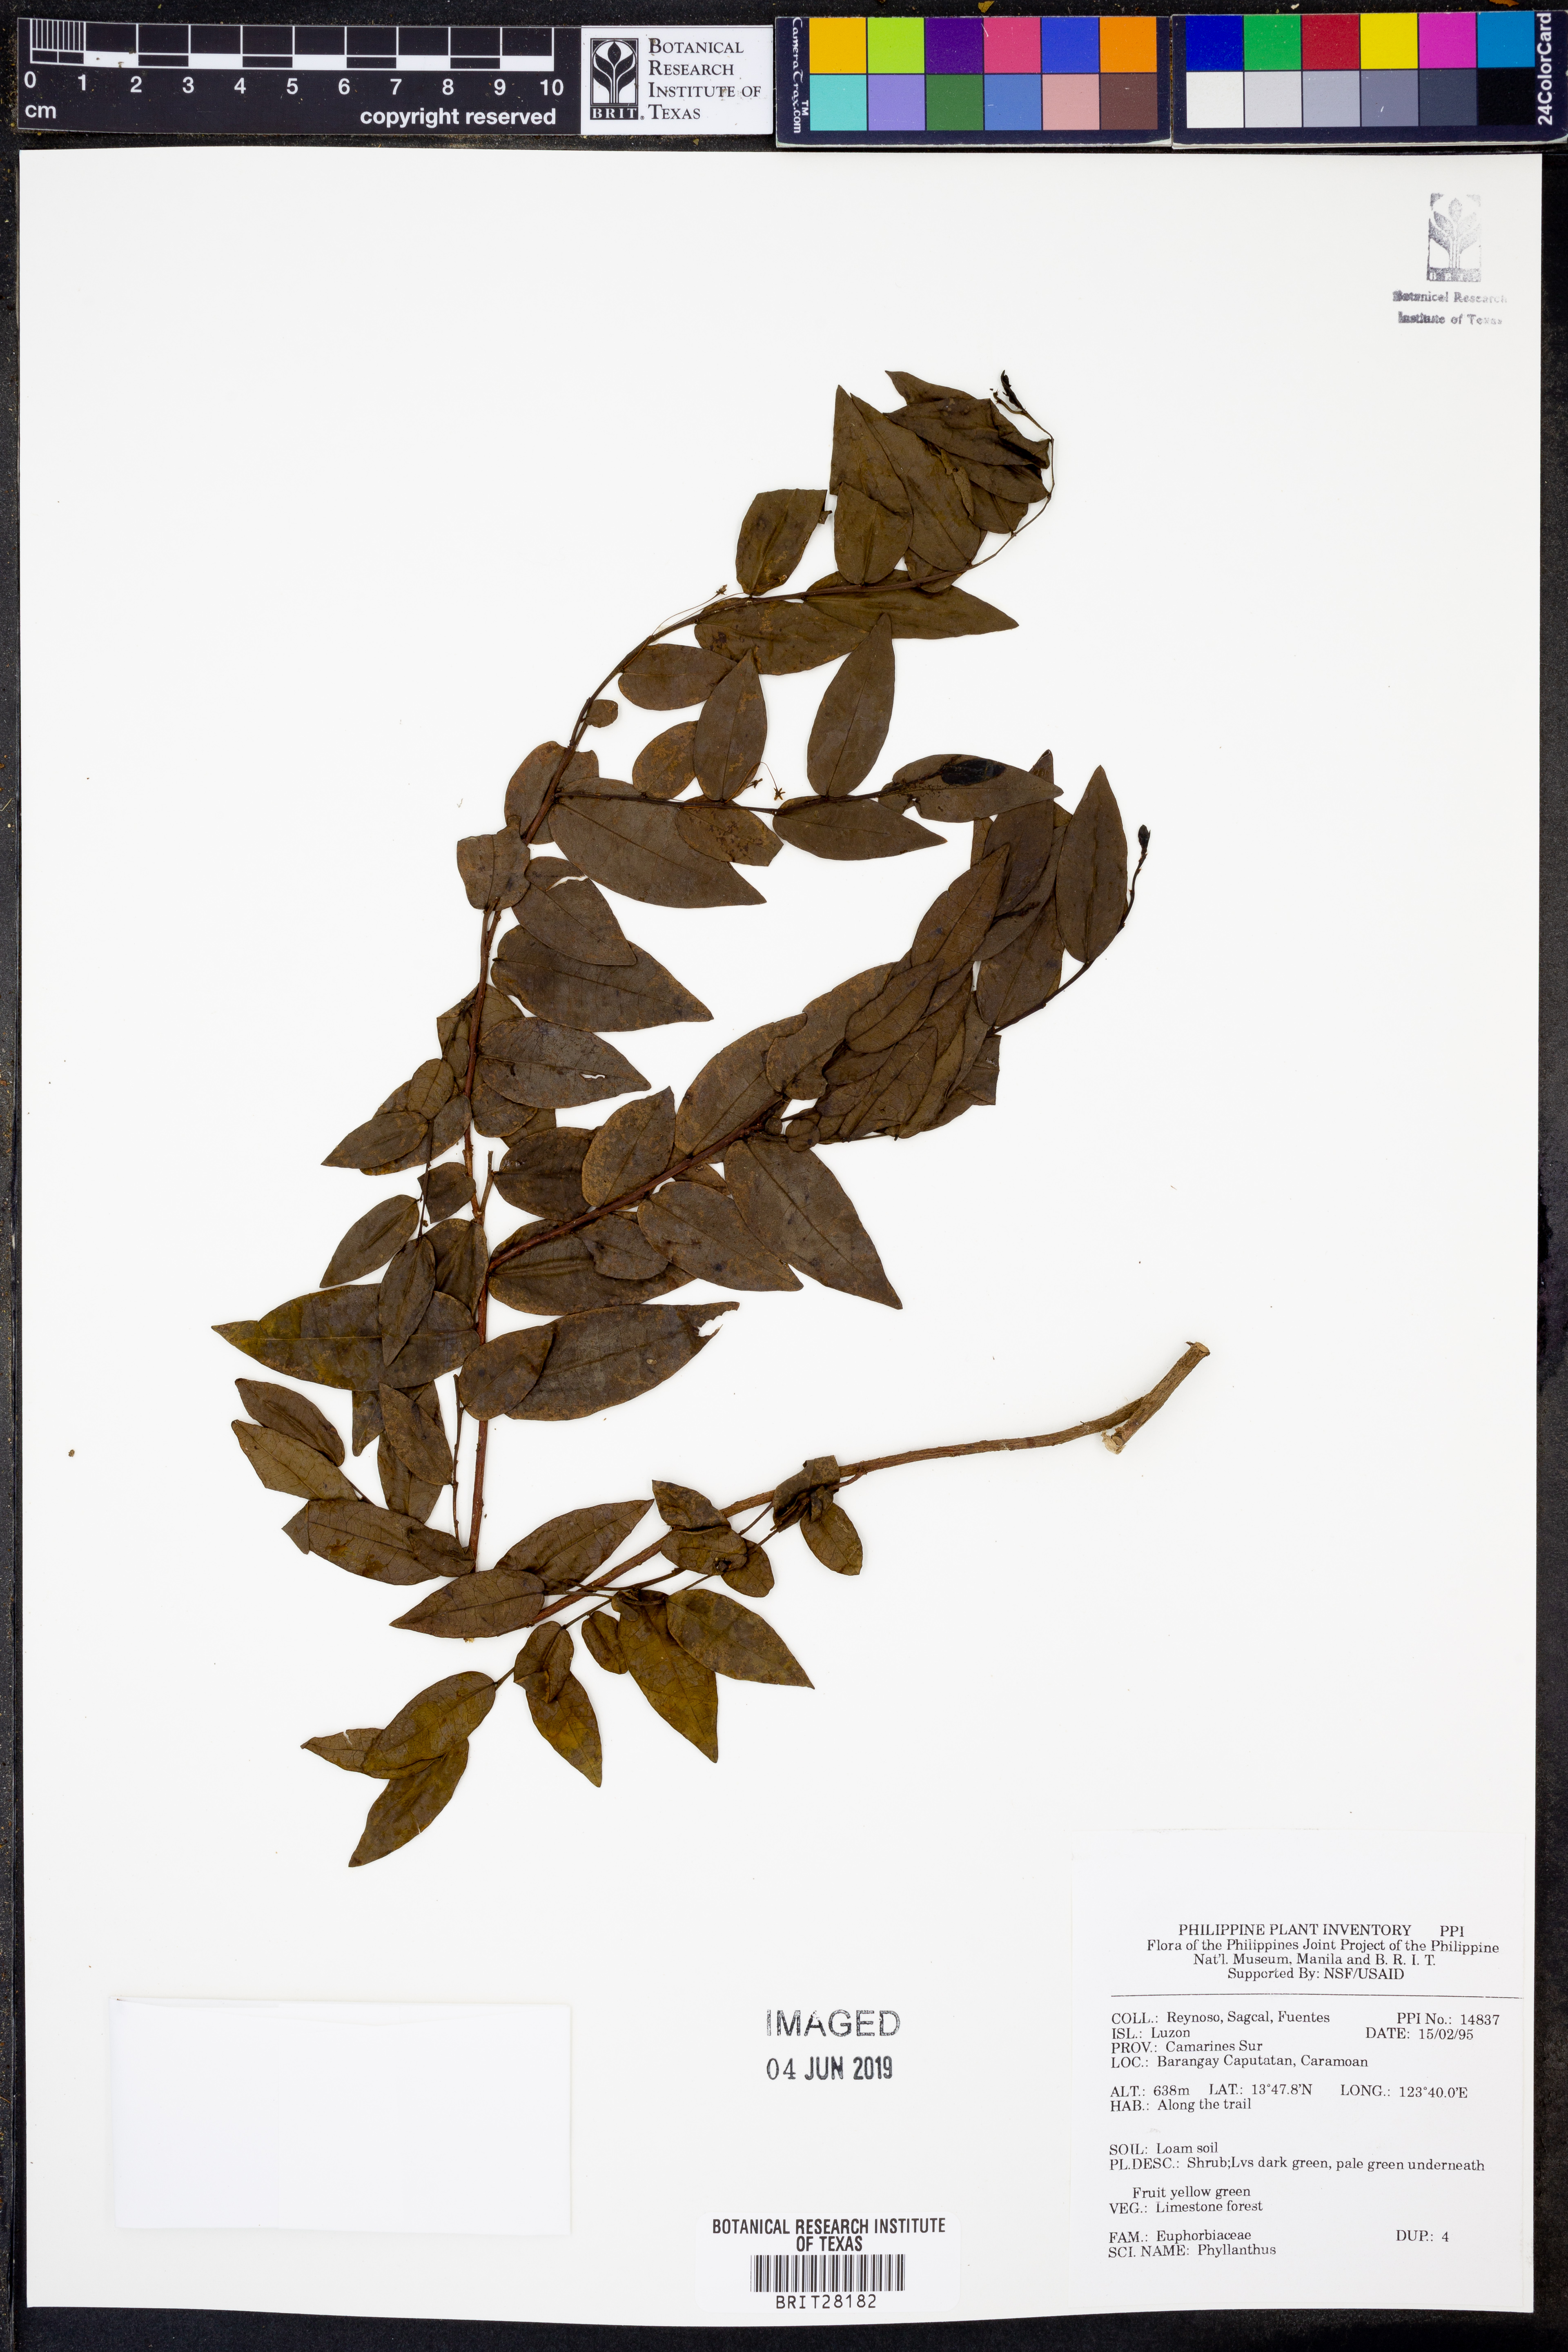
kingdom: Plantae
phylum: Tracheophyta
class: Magnoliopsida
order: Malpighiales
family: Phyllanthaceae
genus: Phyllanthus
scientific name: Phyllanthus
